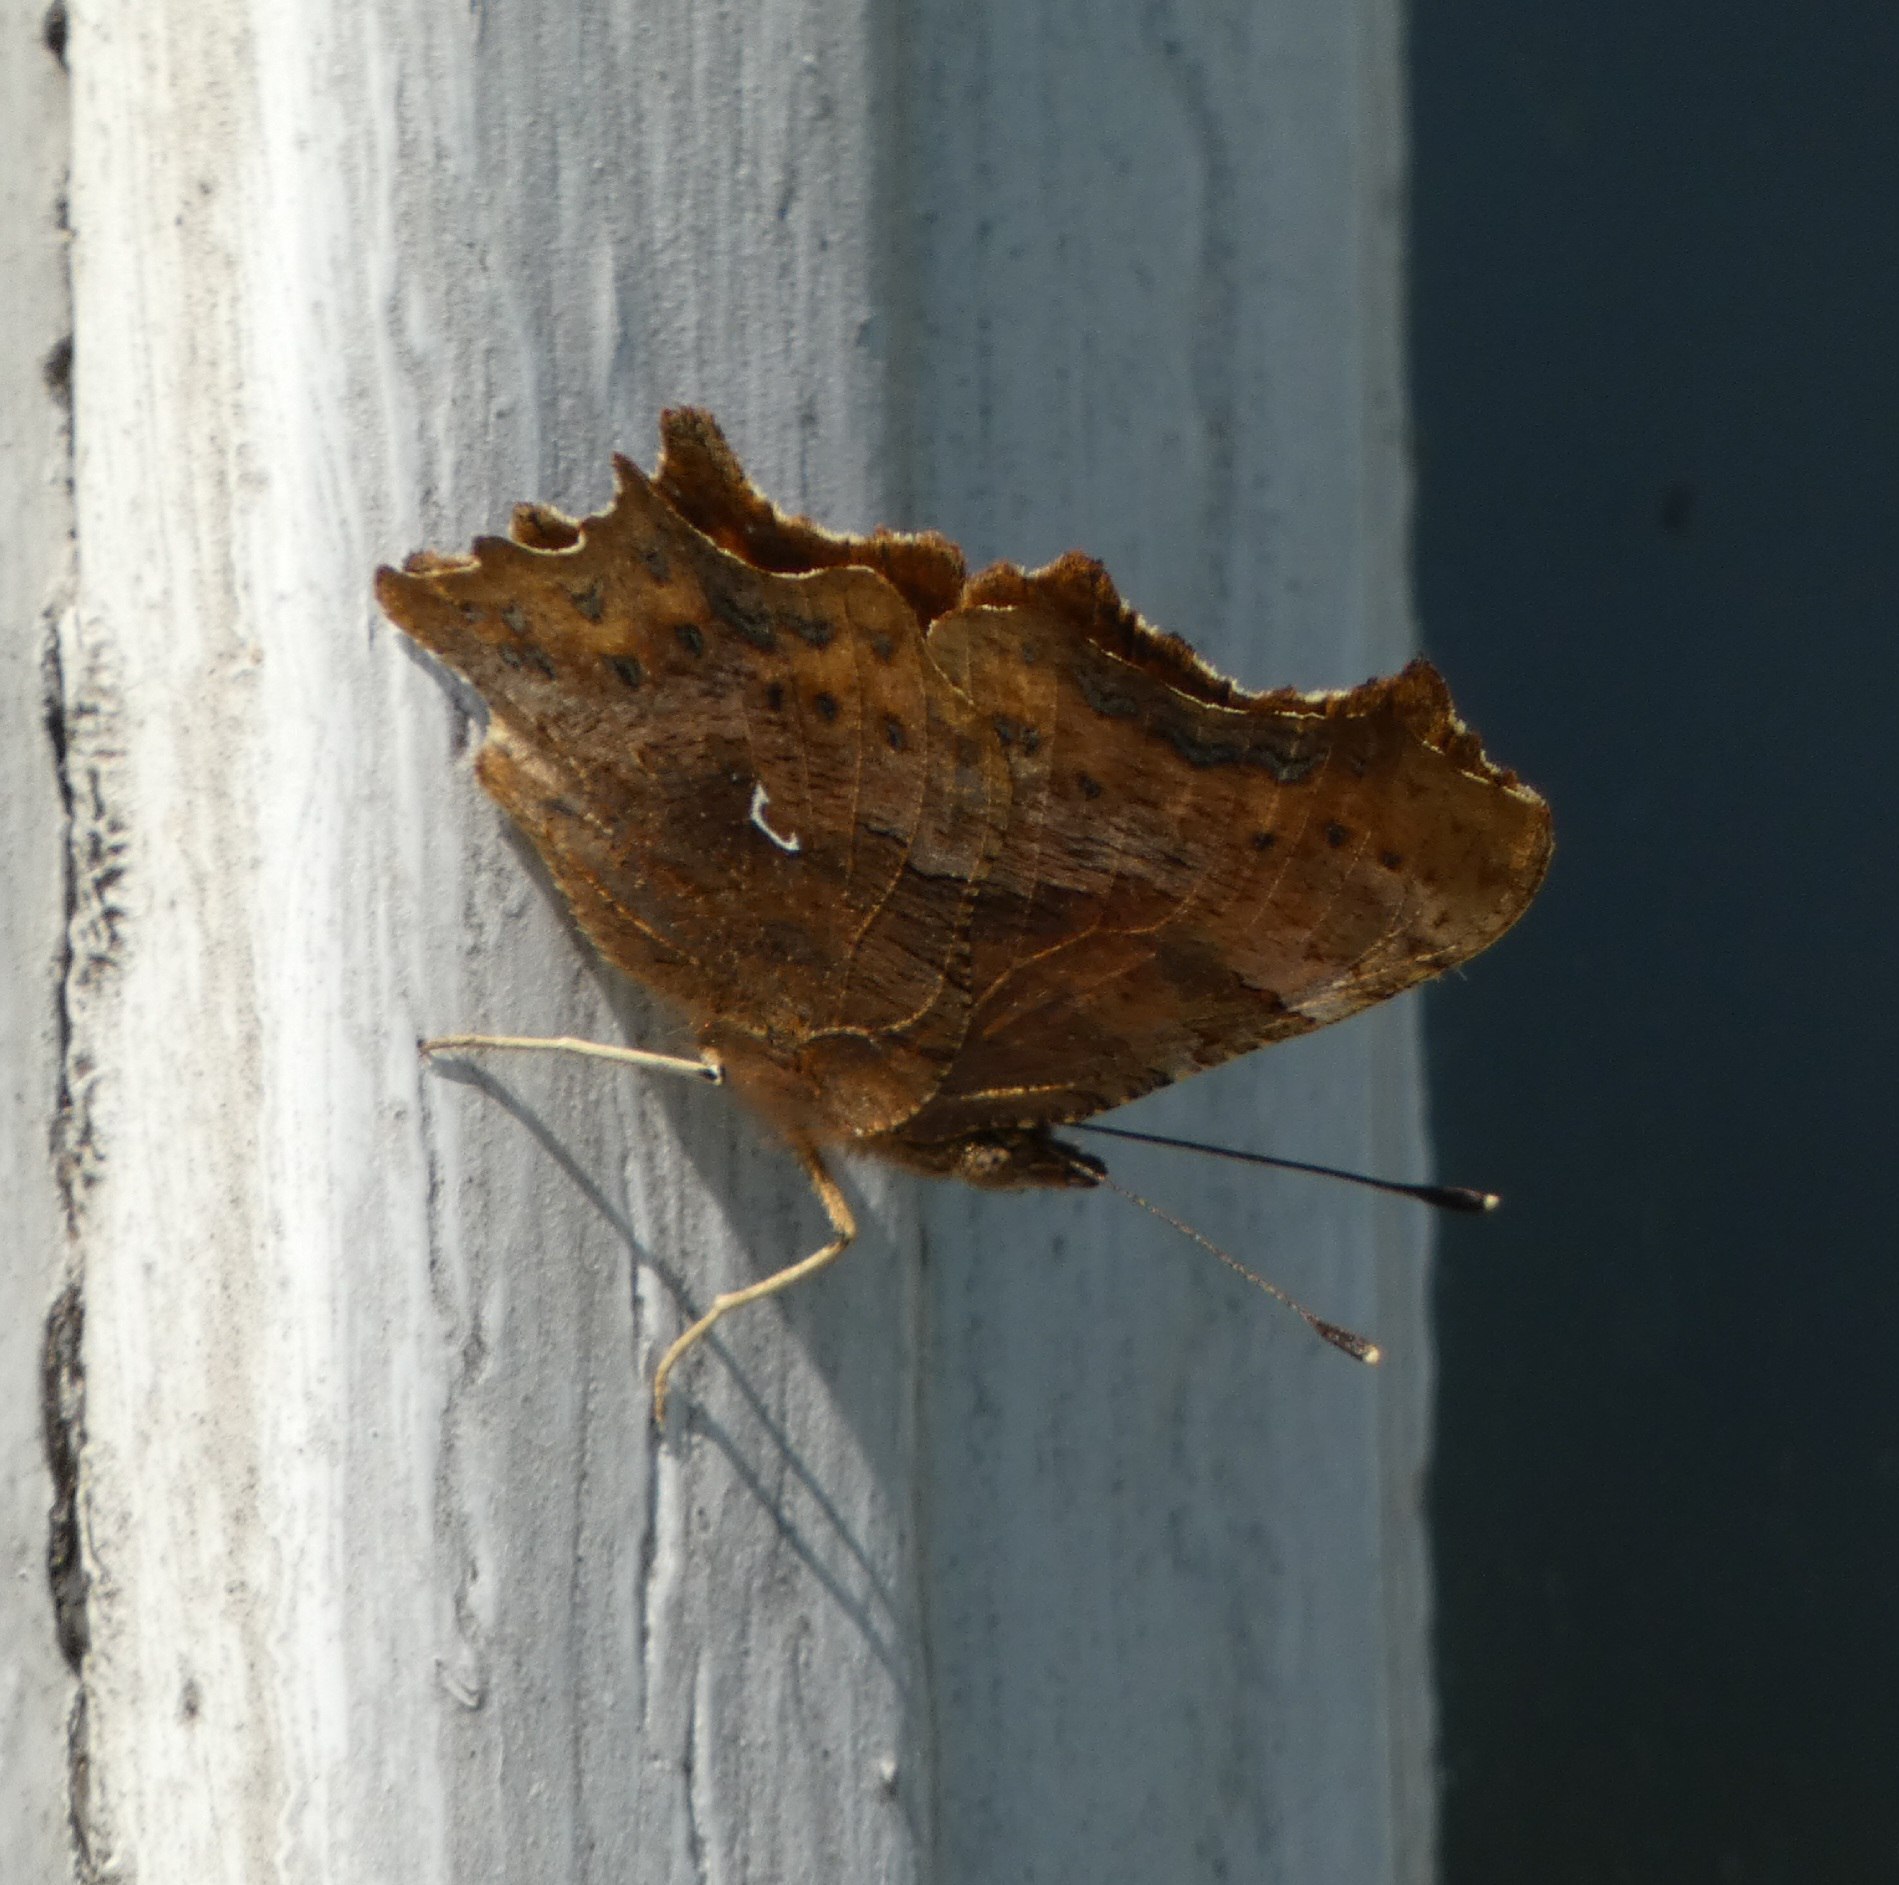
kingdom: Animalia
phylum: Arthropoda
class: Insecta
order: Lepidoptera
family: Nymphalidae
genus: Polygonia
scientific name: Polygonia c-album
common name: Det hvide C
